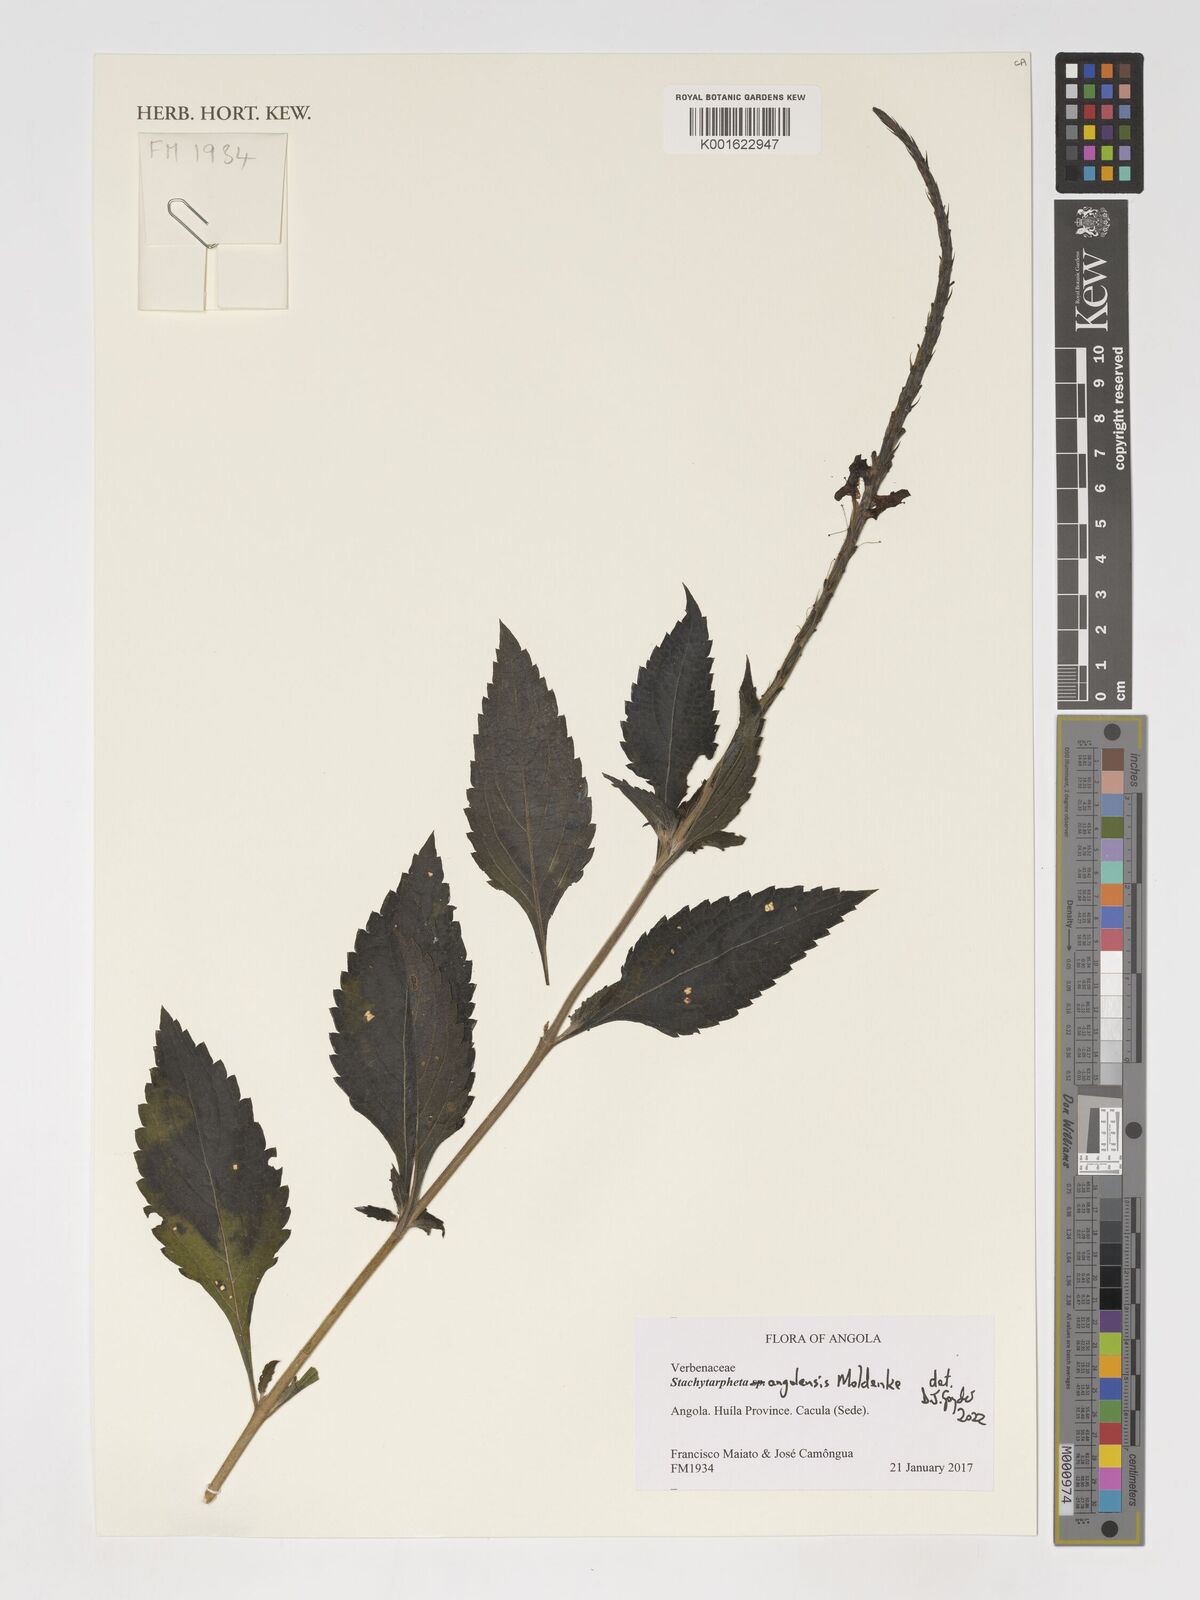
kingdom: Plantae
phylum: Tracheophyta
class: Magnoliopsida
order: Lamiales
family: Verbenaceae
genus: Stachytarpheta
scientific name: Stachytarpheta angolensis
